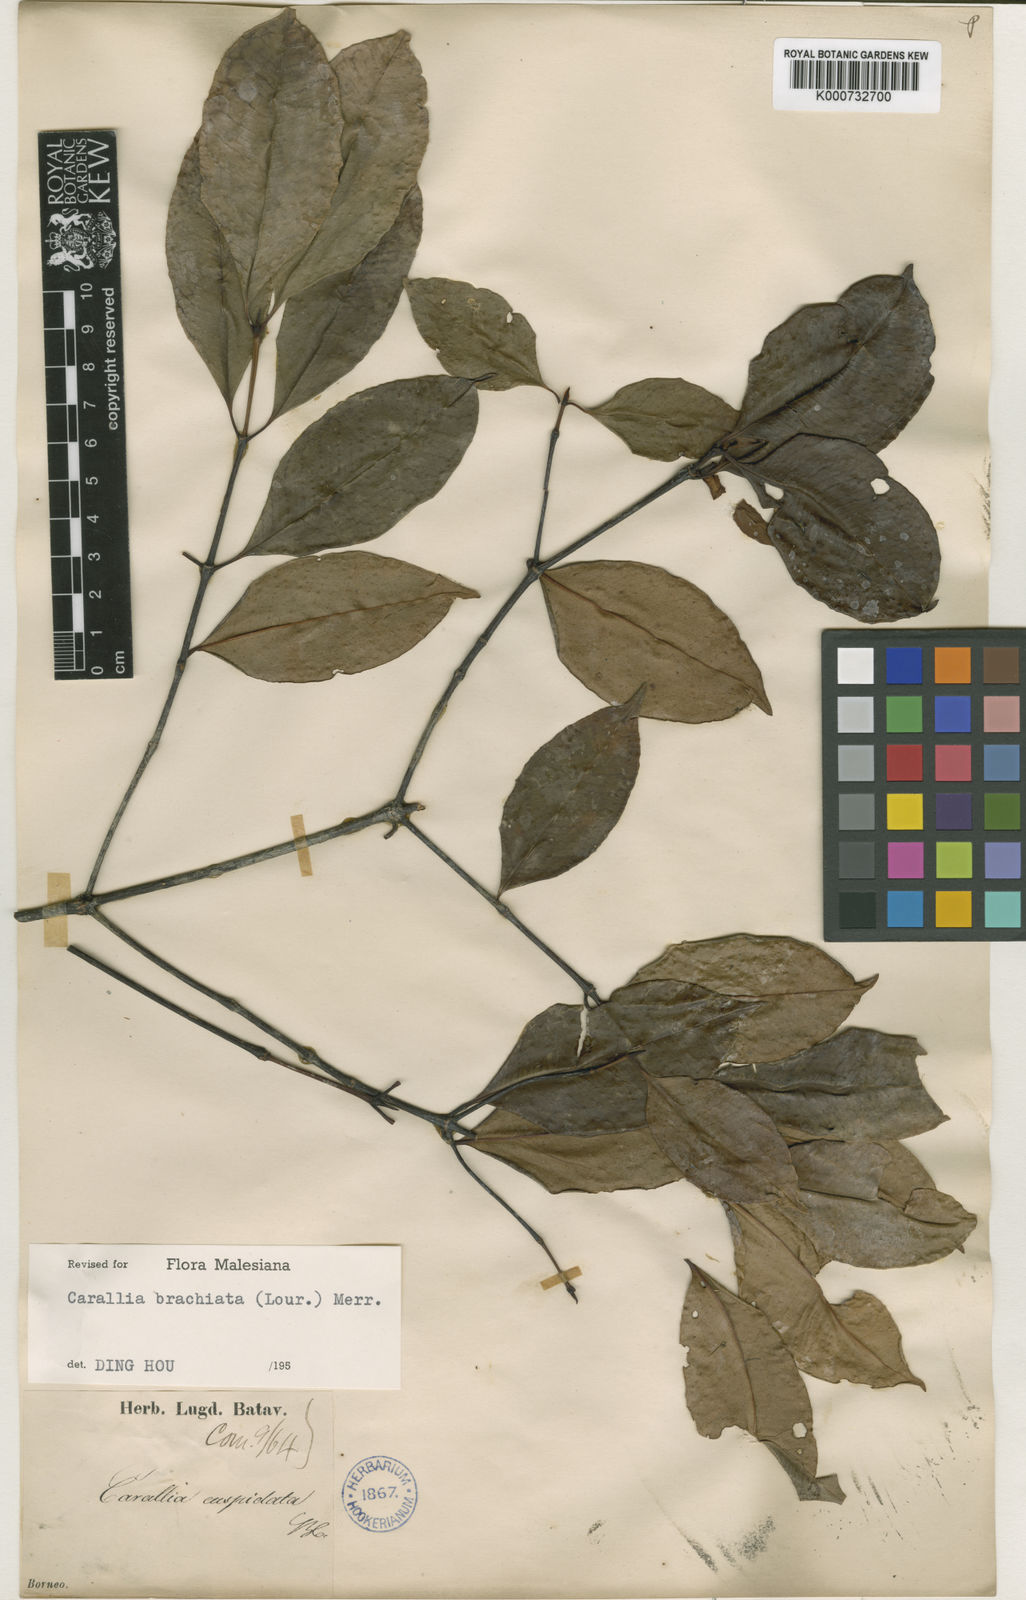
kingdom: Plantae
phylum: Tracheophyta
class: Magnoliopsida
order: Malpighiales
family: Rhizophoraceae
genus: Carallia
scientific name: Carallia brachiata
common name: Carallawood
